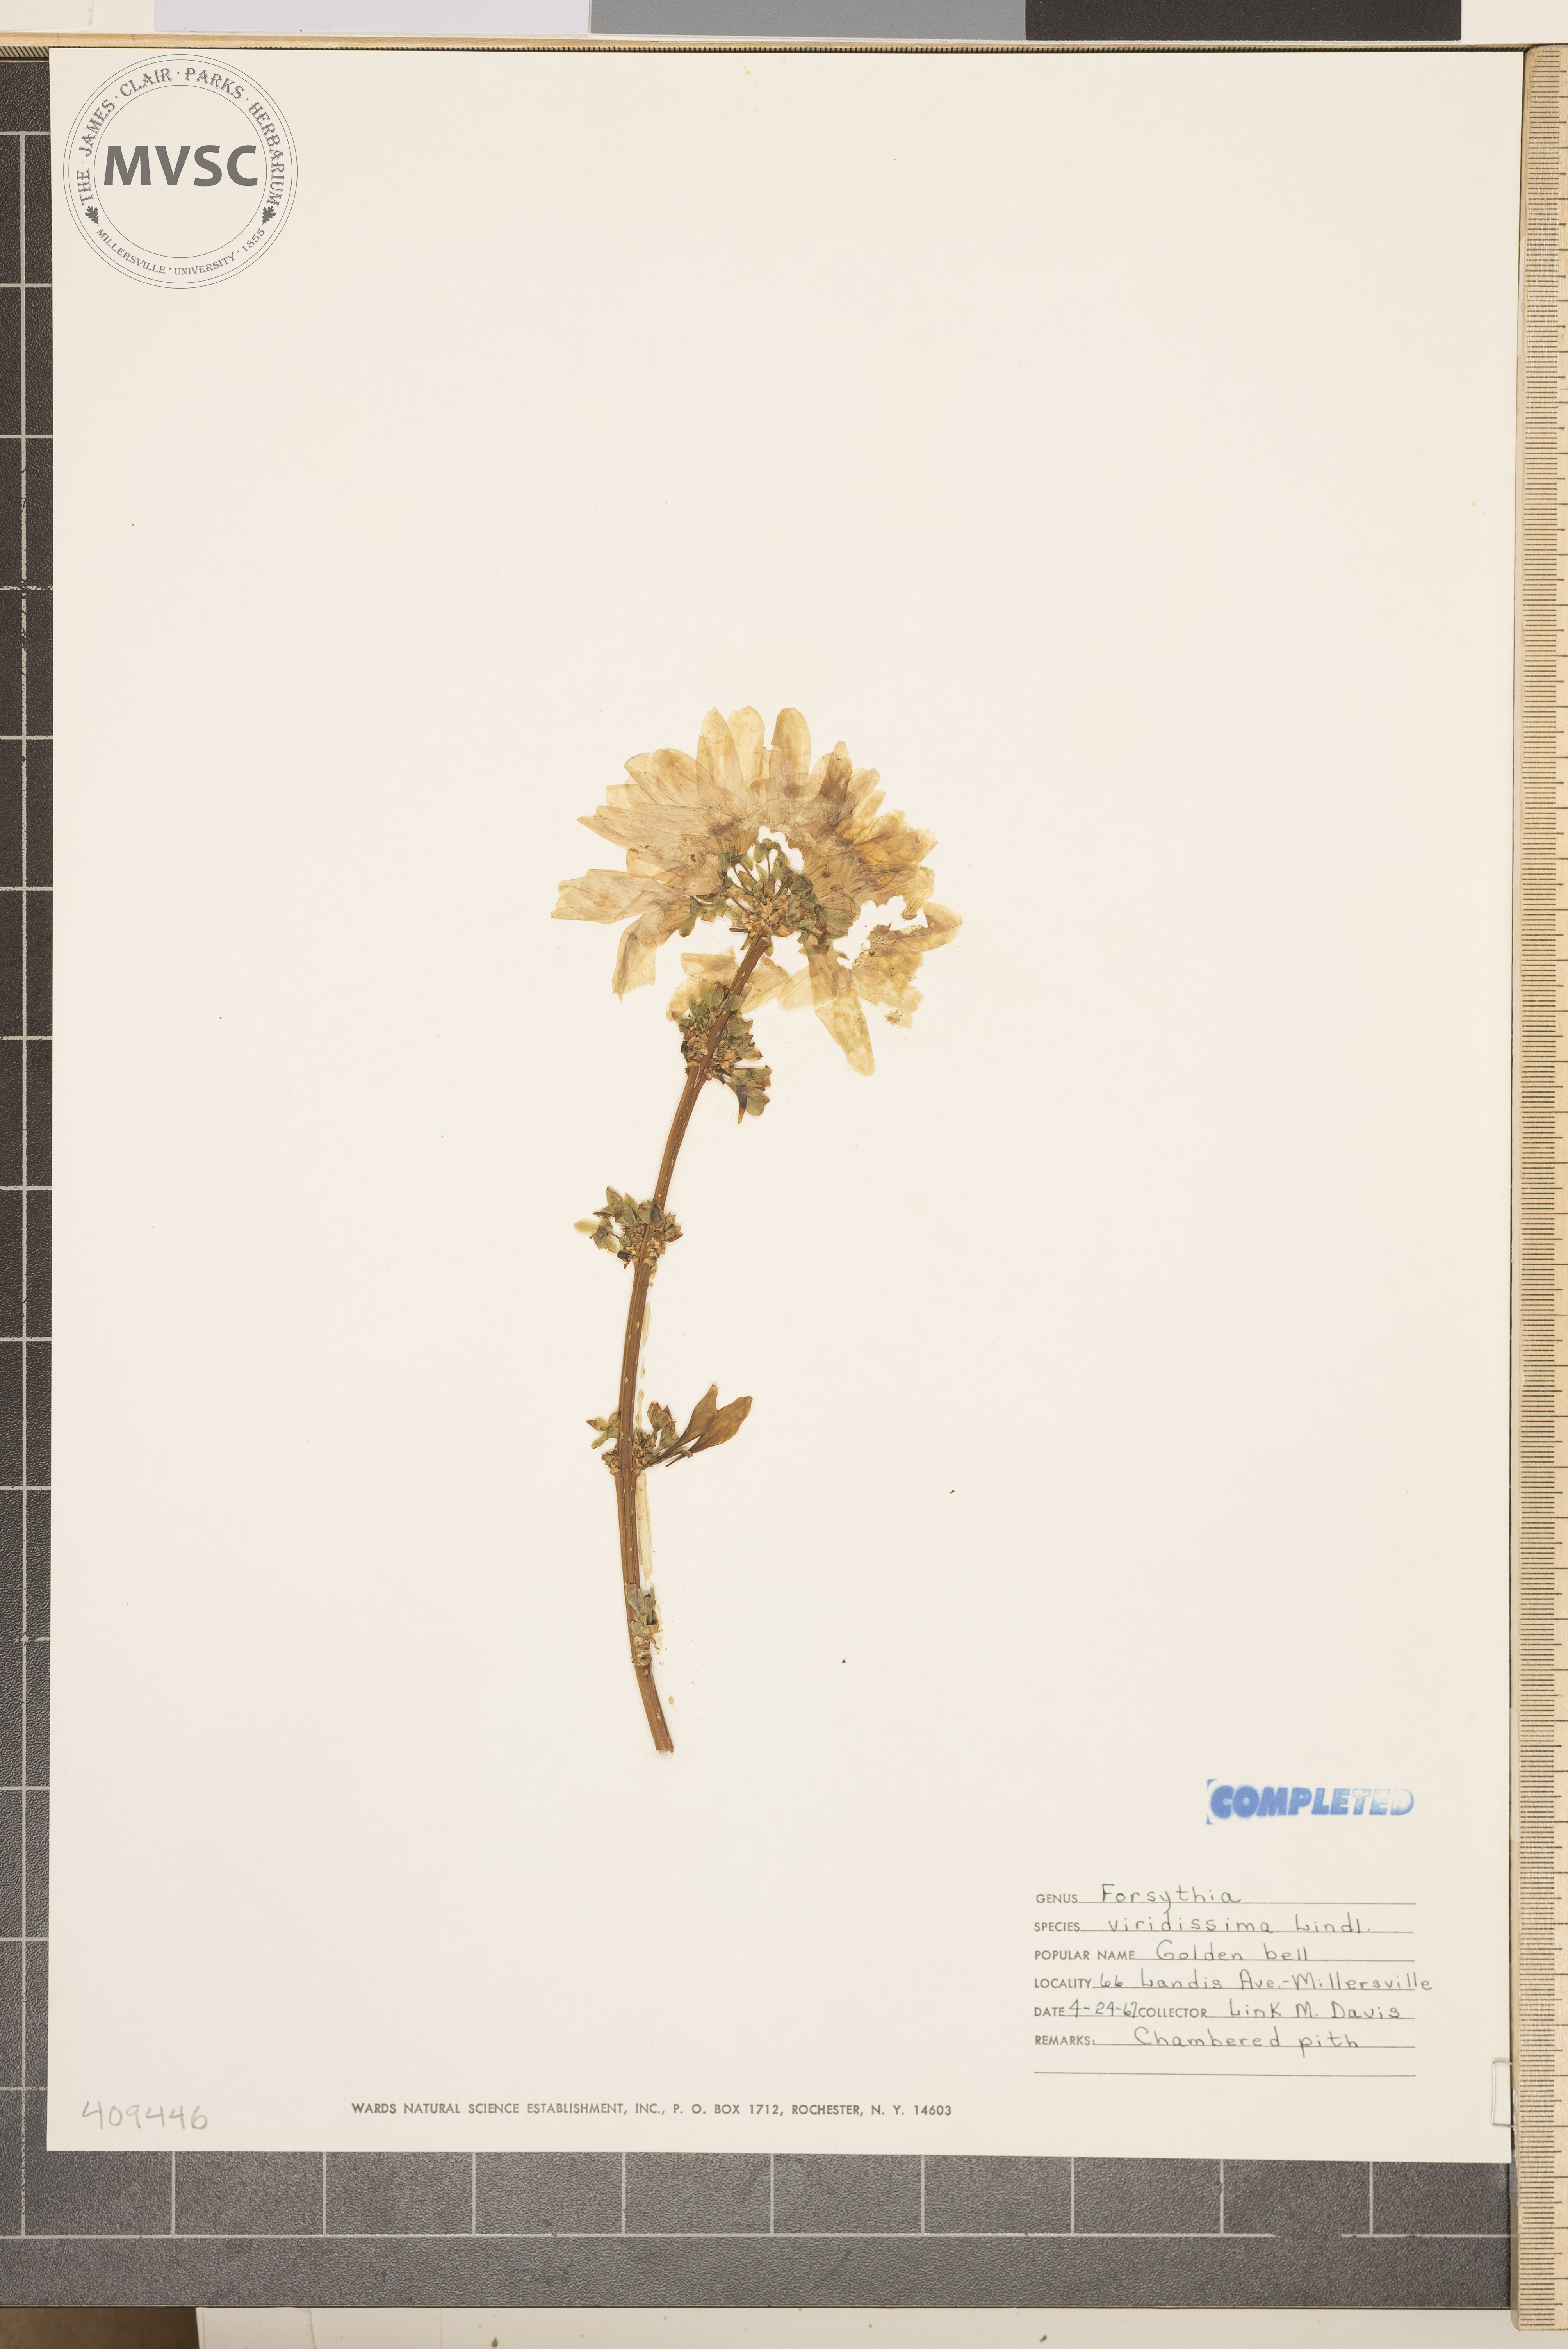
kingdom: Plantae
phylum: Tracheophyta
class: Magnoliopsida
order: Lamiales
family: Oleaceae
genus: Forsythia
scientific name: Forsythia viridissima
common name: Greenstem forsythia
